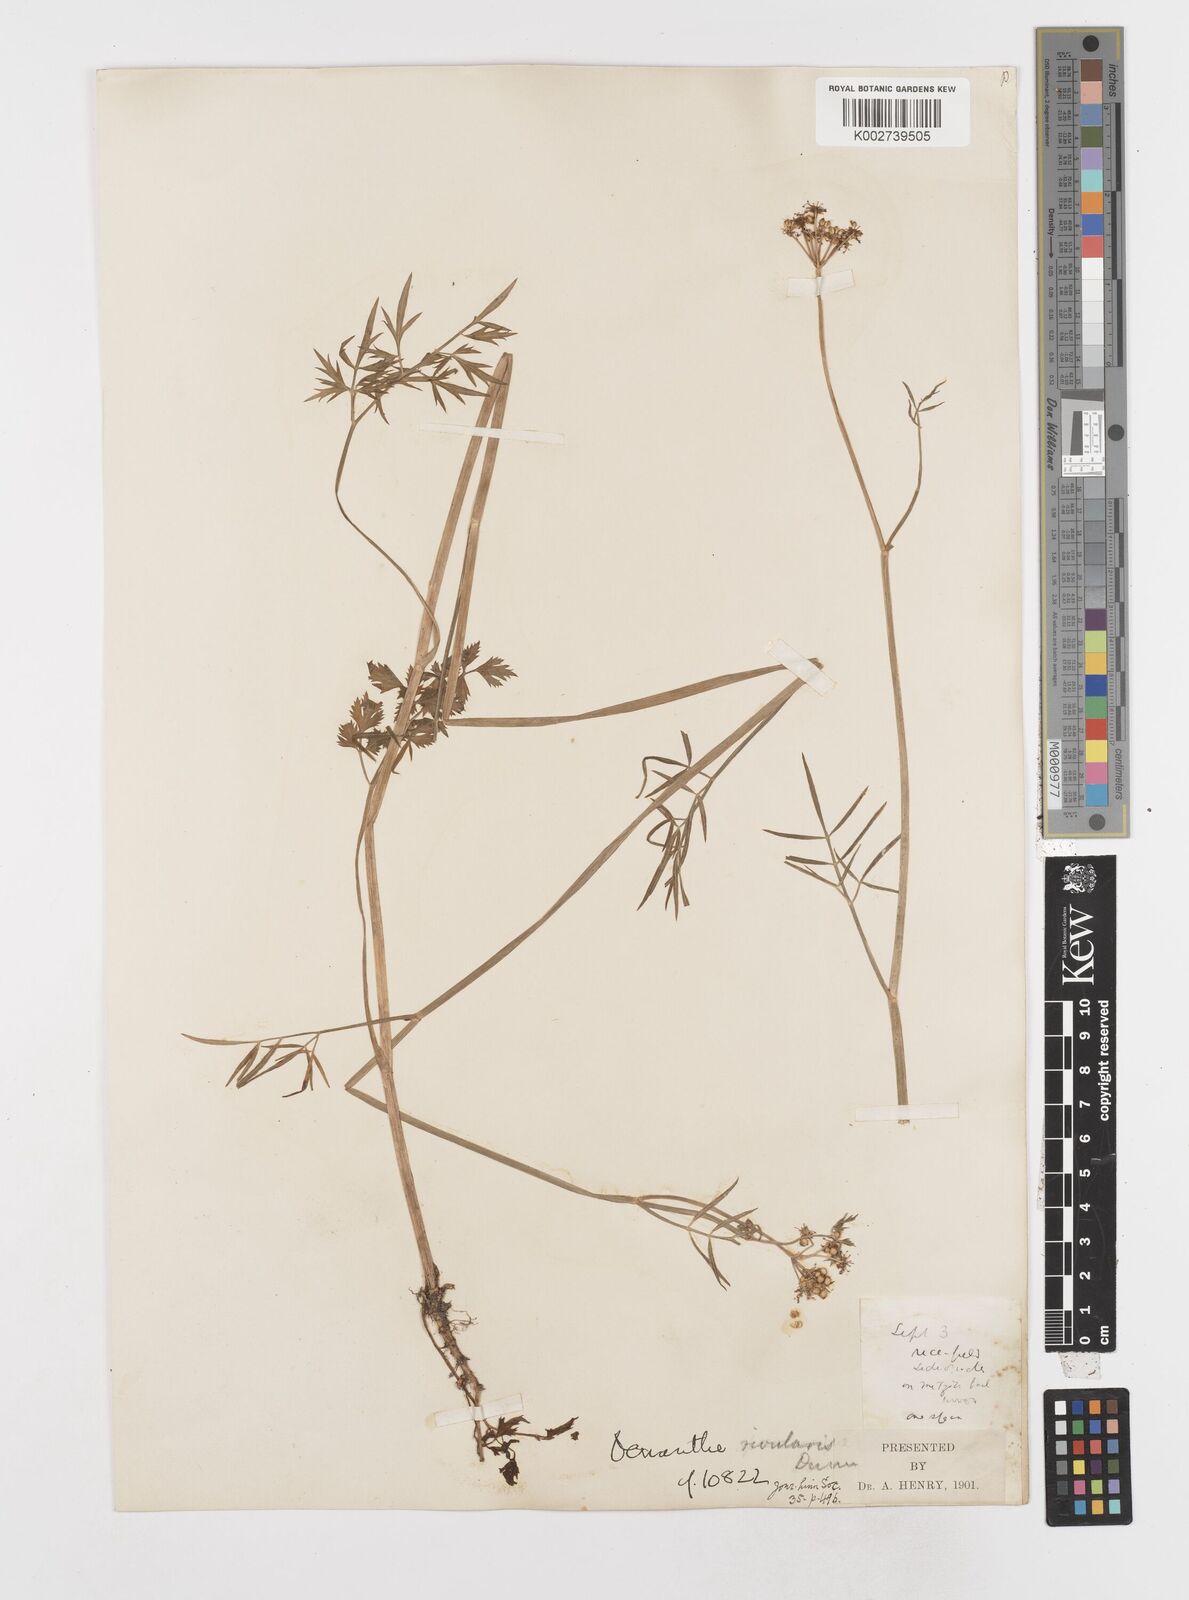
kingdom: Plantae
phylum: Tracheophyta
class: Magnoliopsida
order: Apiales
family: Apiaceae
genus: Oenanthe
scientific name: Oenanthe linearis
